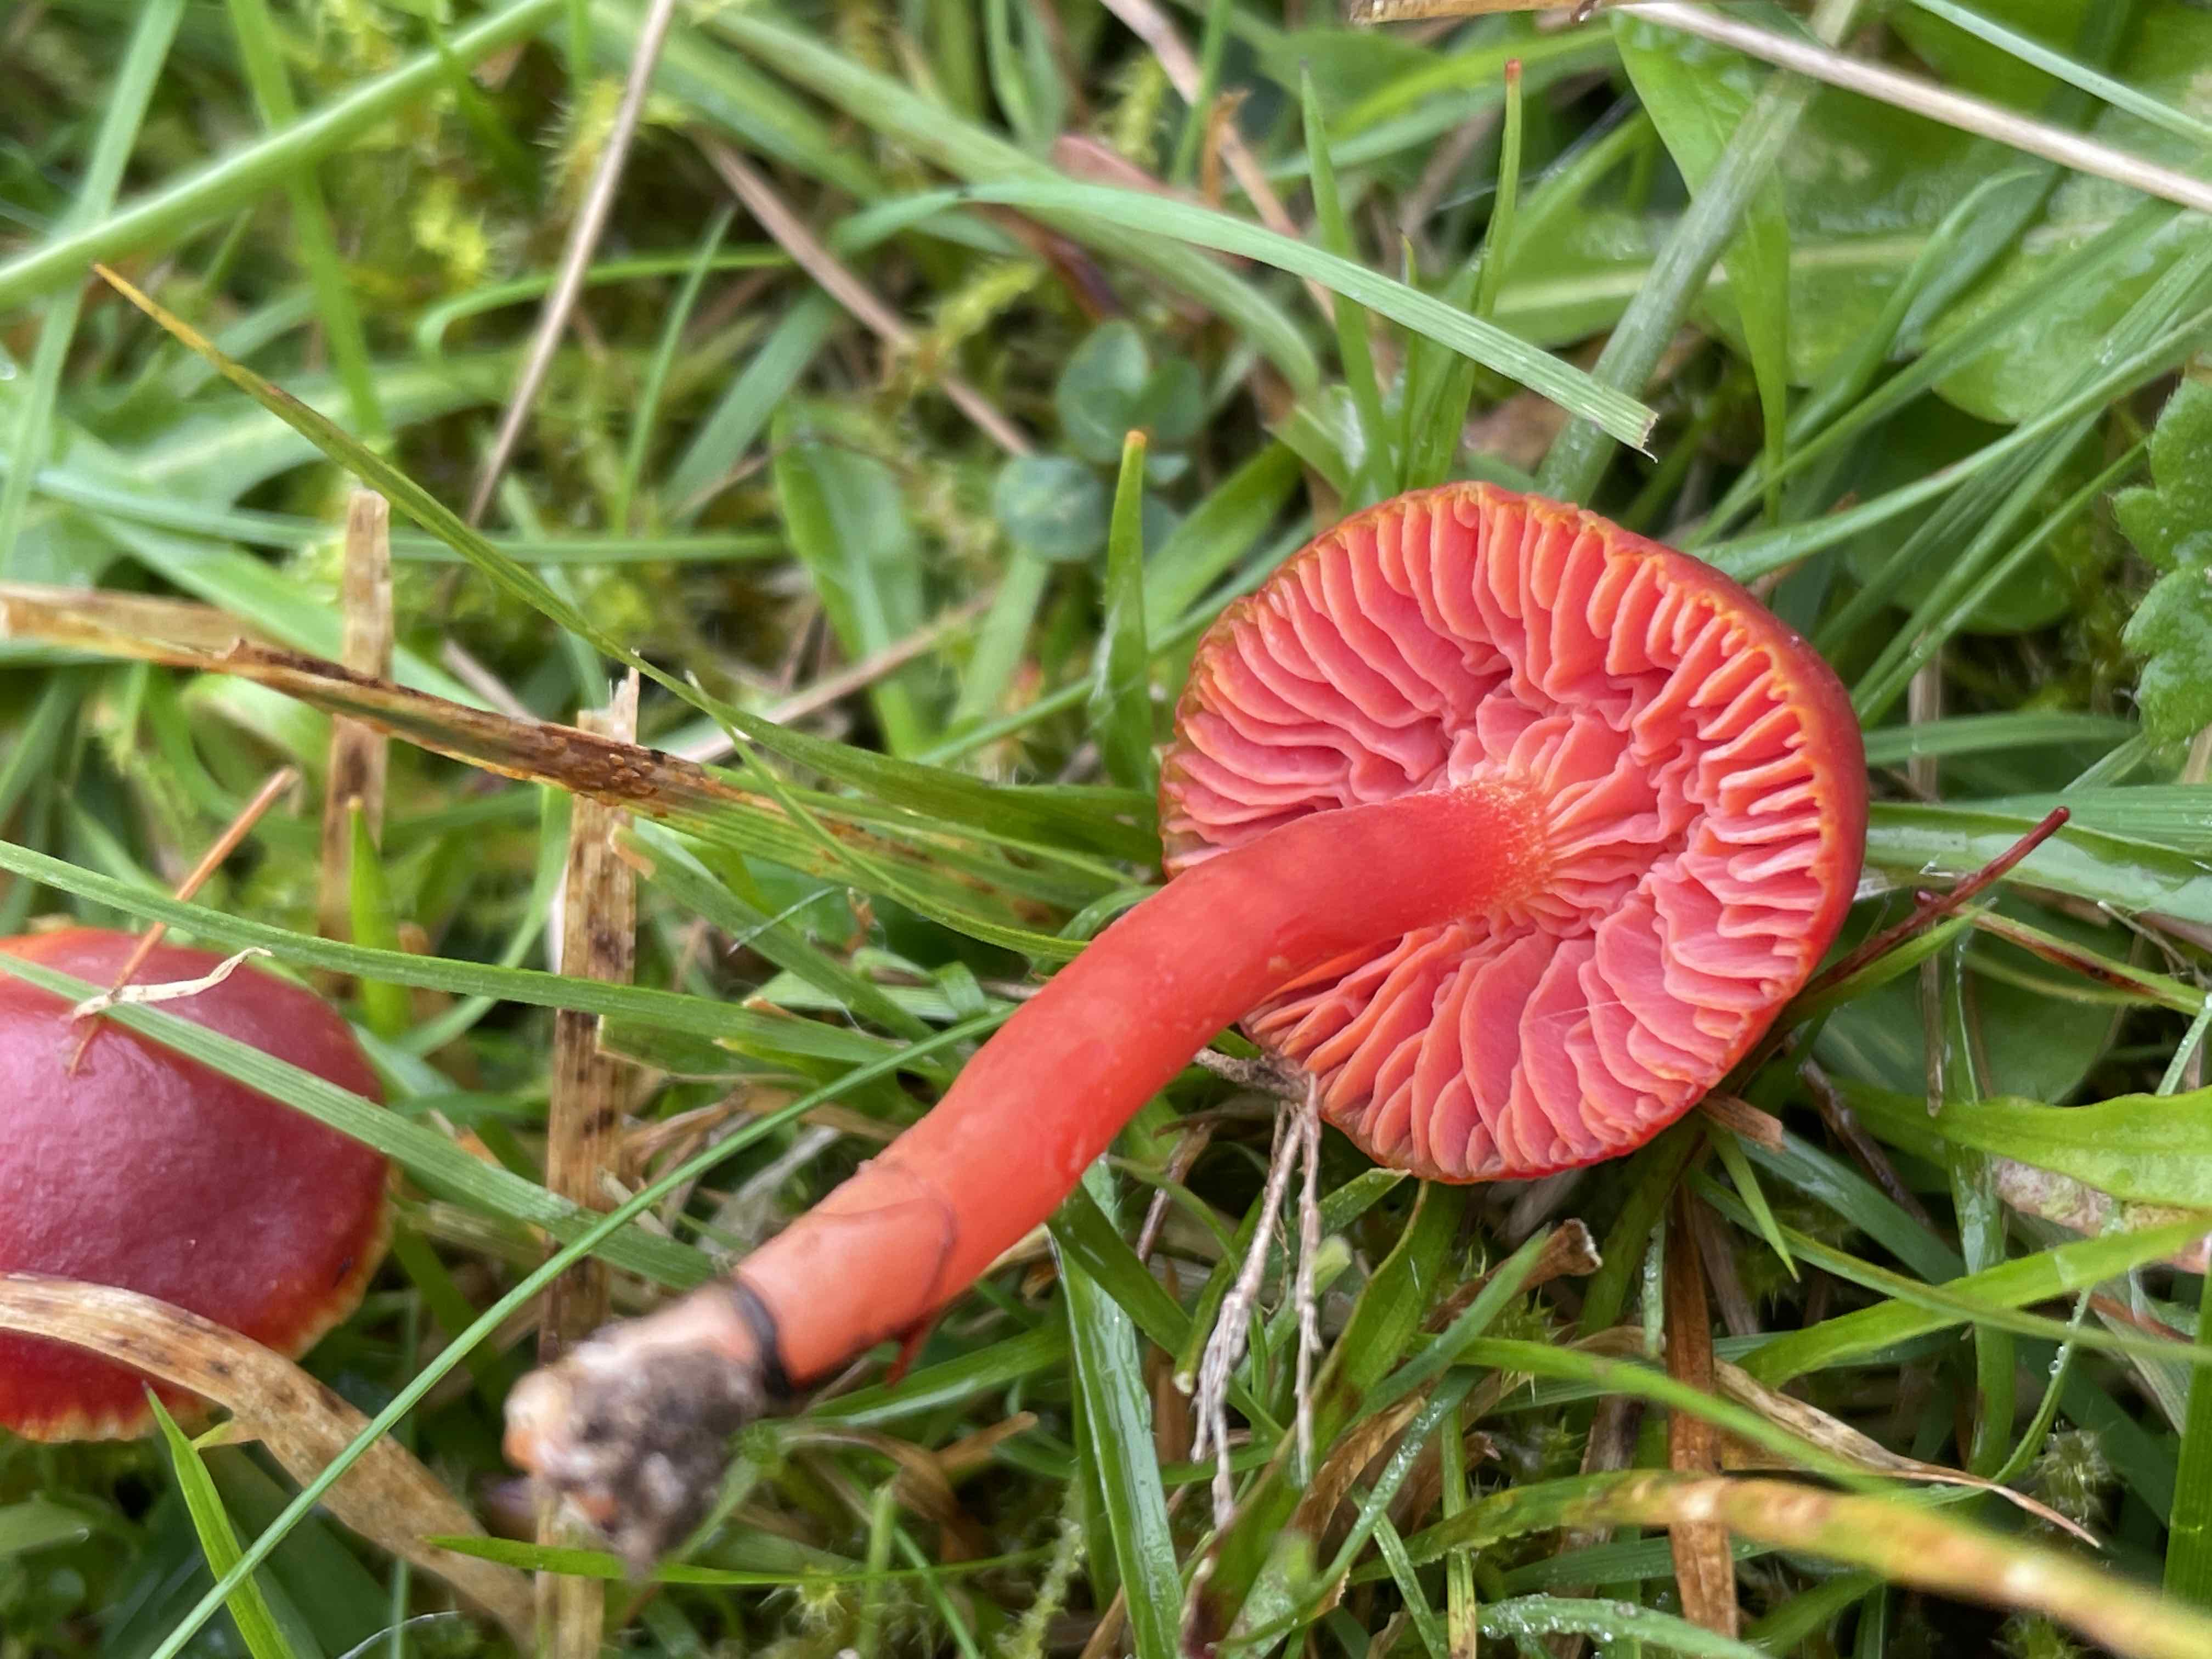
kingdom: Fungi
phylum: Basidiomycota
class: Agaricomycetes
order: Agaricales
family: Hygrophoraceae
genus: Hygrocybe
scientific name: Hygrocybe phaeococcinea
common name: sortdugget vokshat
